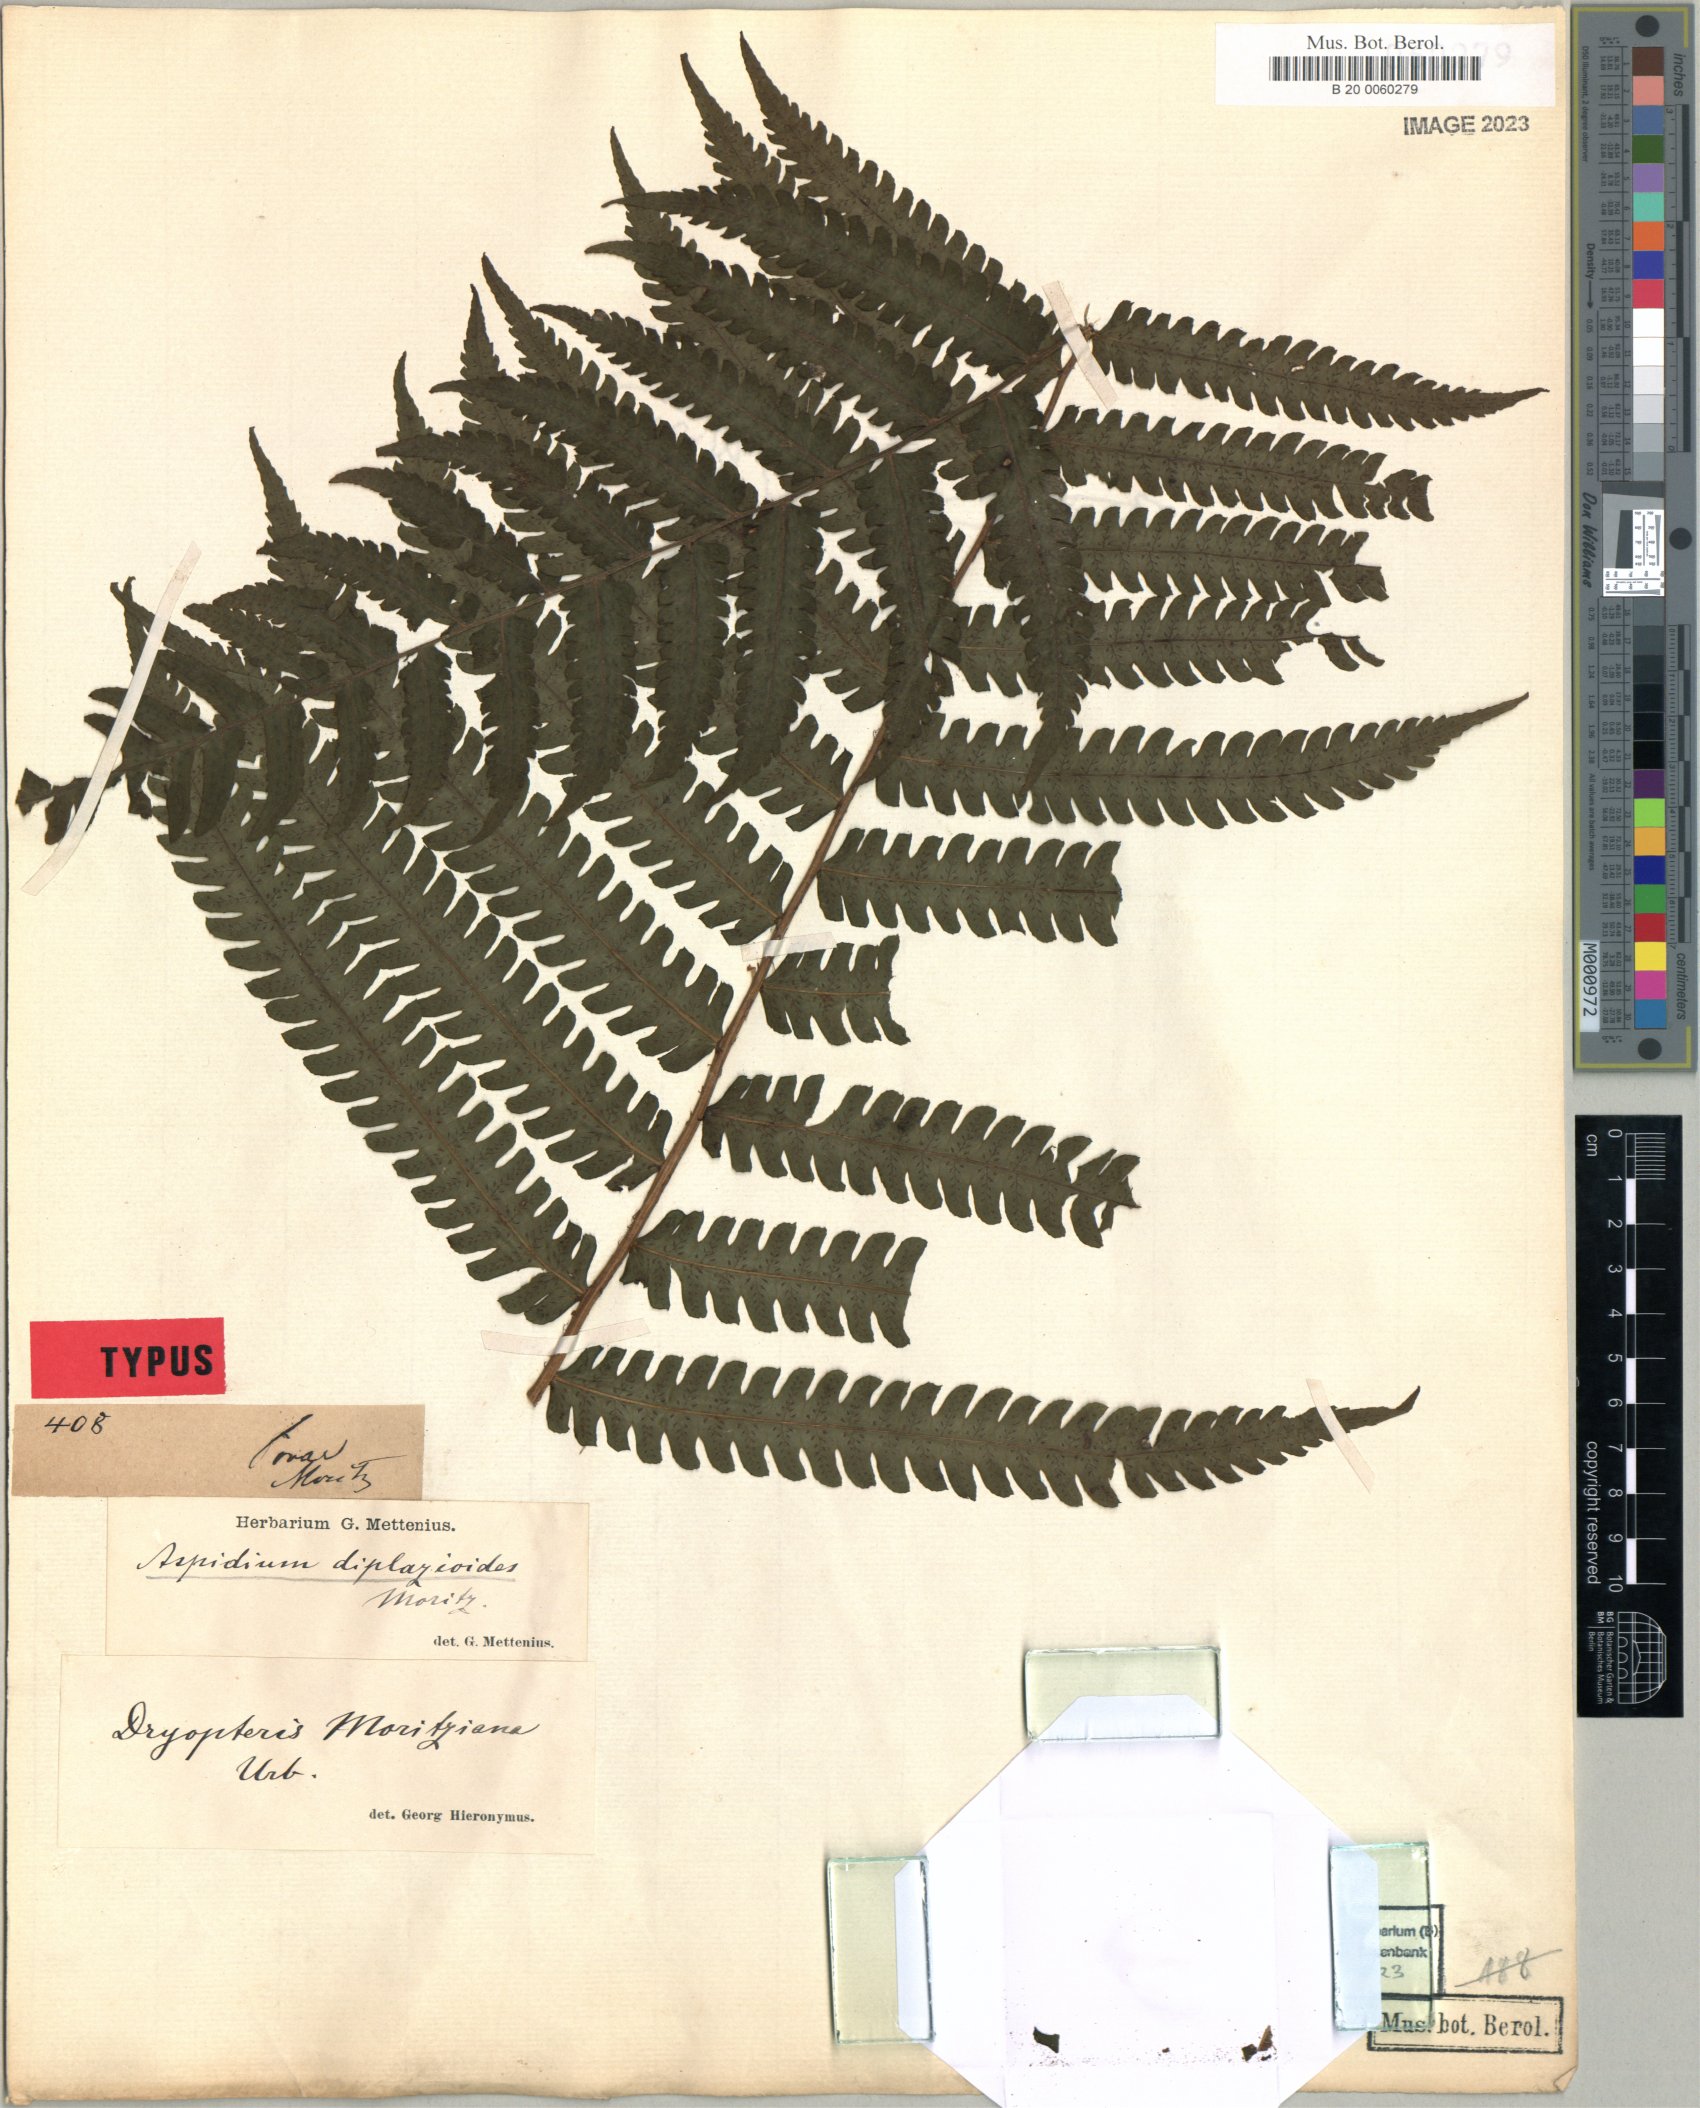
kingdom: Plantae
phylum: Tracheophyta
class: Polypodiopsida
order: Polypodiales
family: Thelypteridaceae
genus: Amauropelta
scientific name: Amauropelta moritziana
